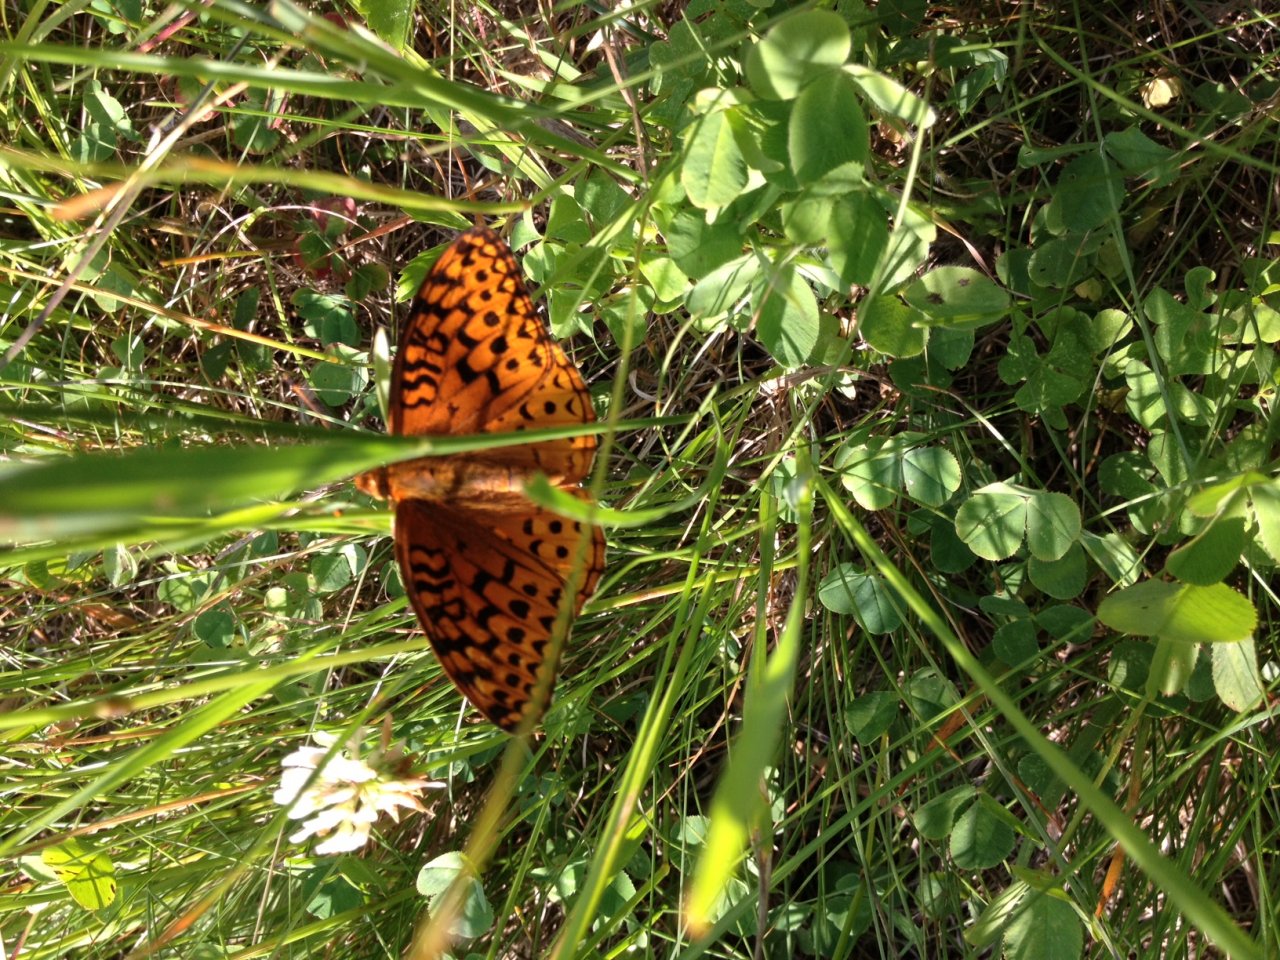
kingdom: Animalia
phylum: Arthropoda
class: Insecta
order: Lepidoptera
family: Nymphalidae
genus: Speyeria
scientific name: Speyeria aphrodite
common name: Aphrodite Fritillary
